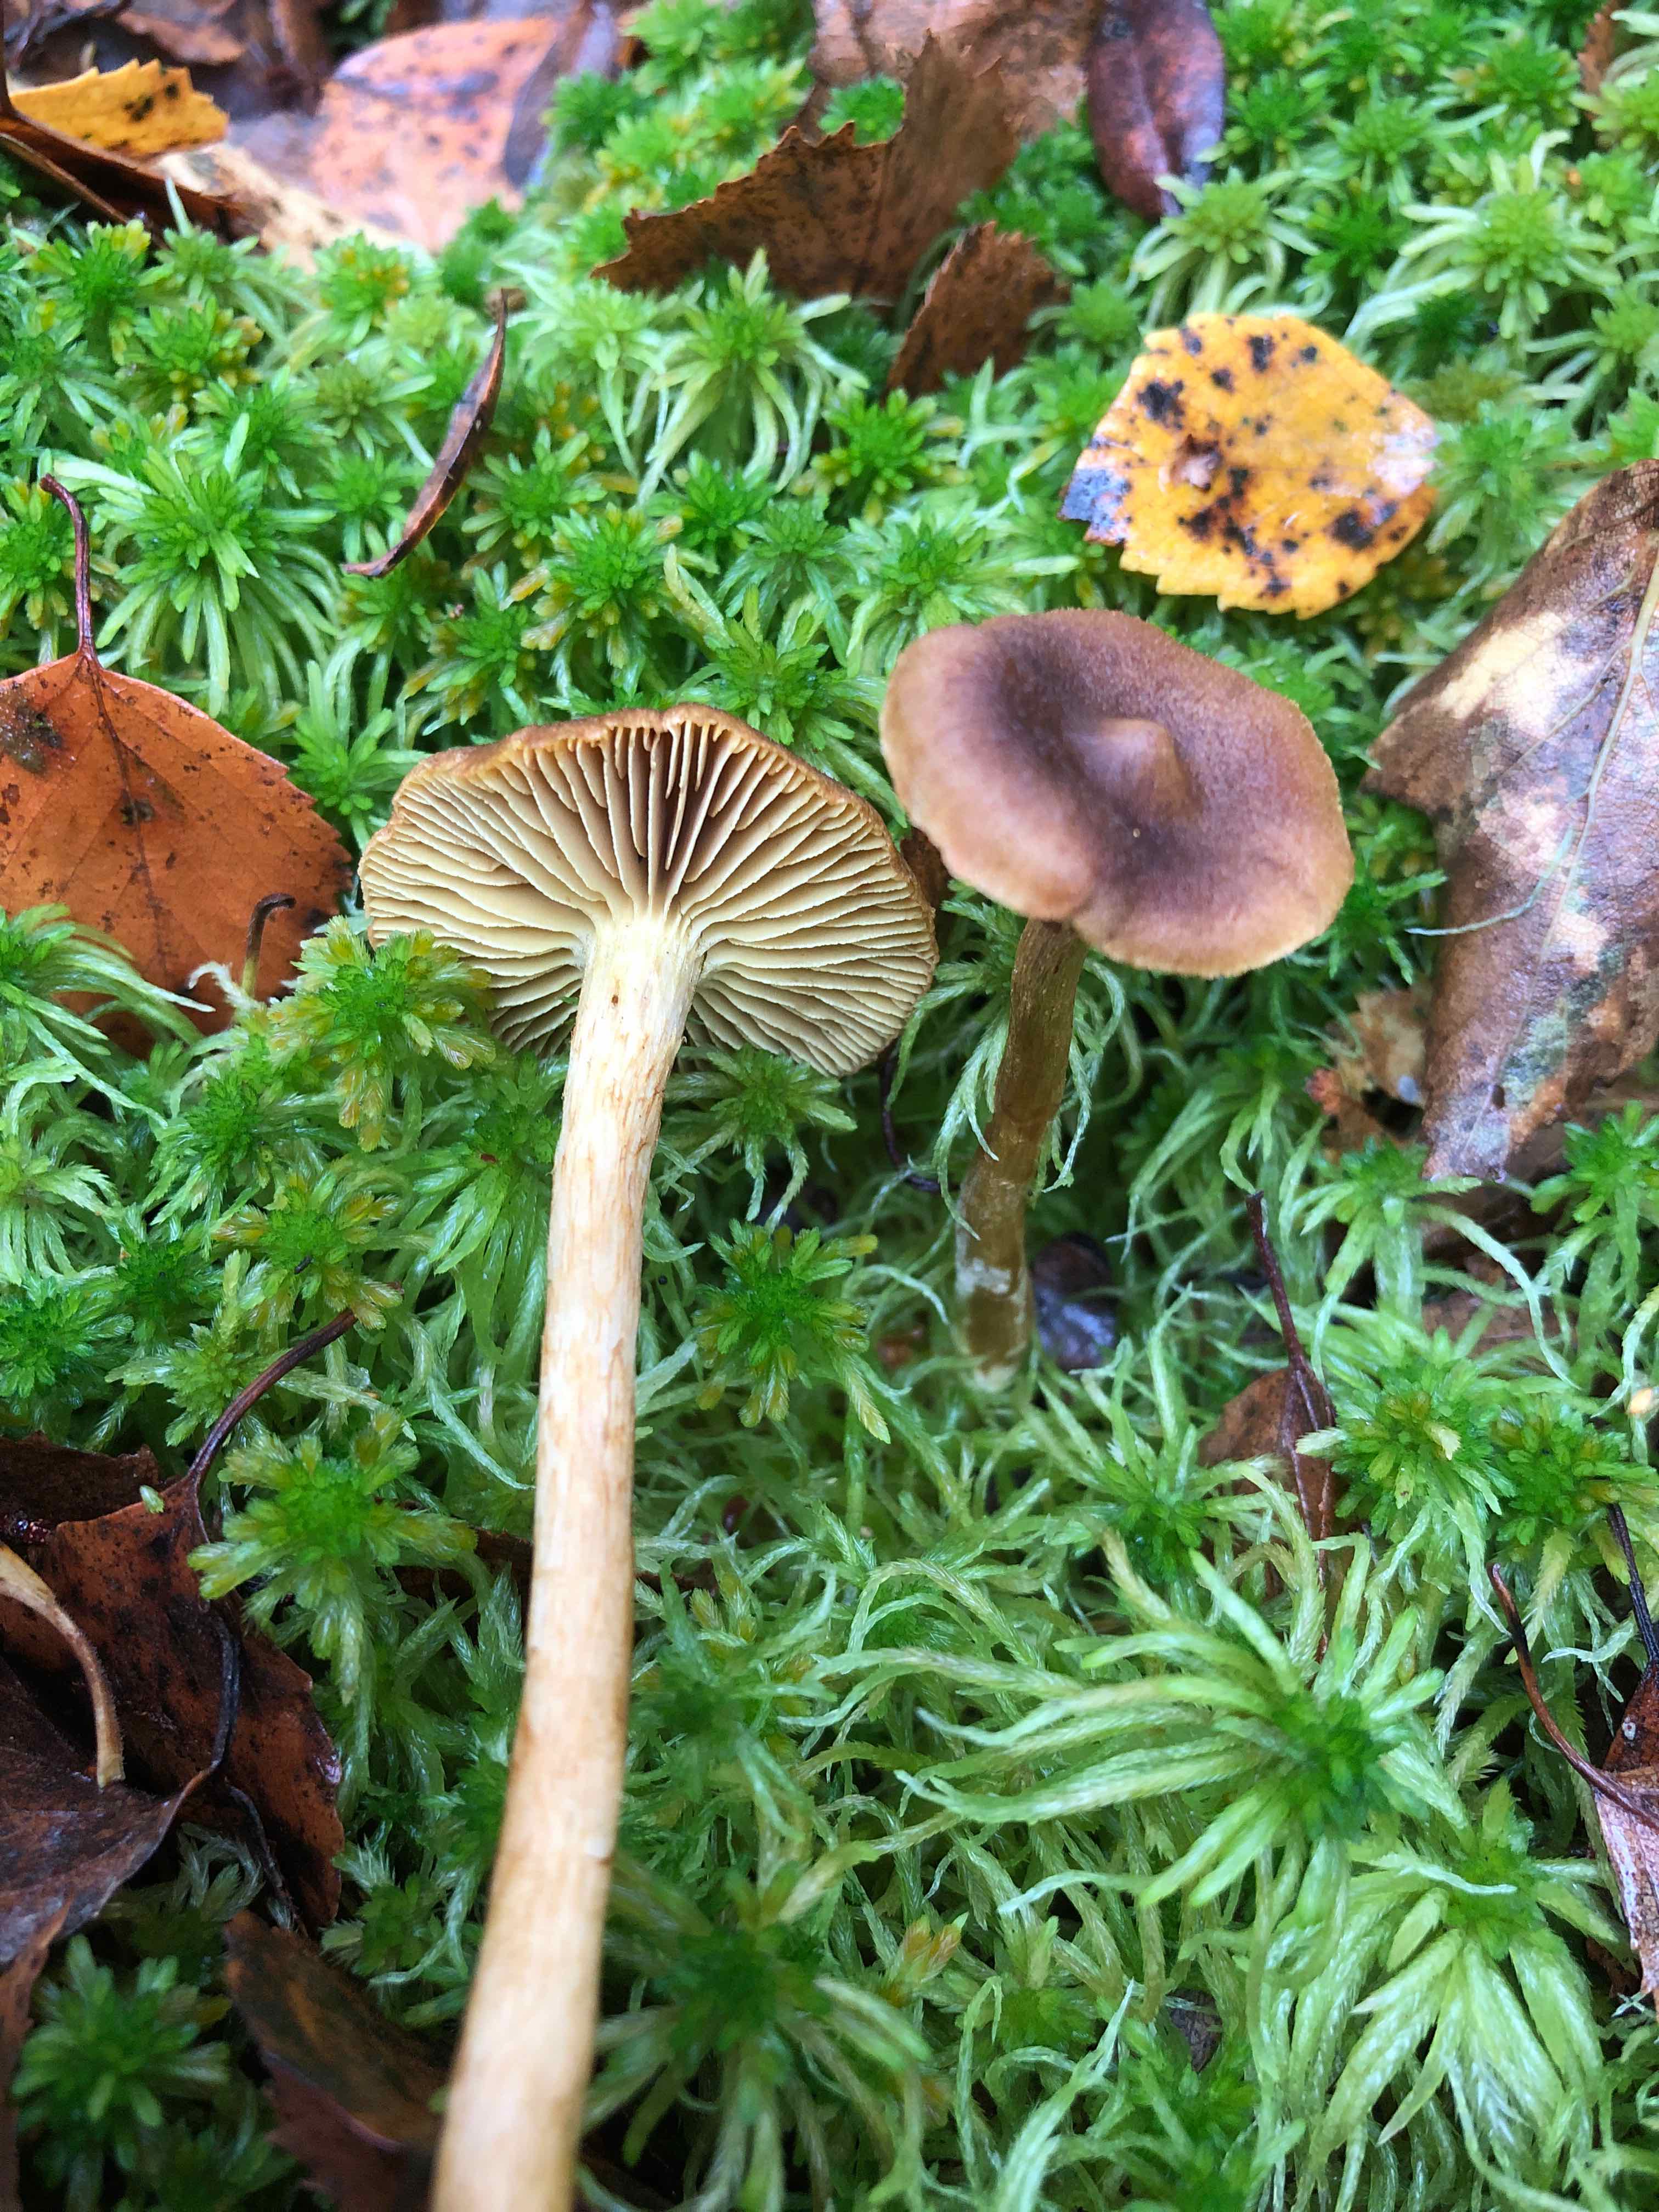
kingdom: Fungi
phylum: Basidiomycota
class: Agaricomycetes
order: Agaricales
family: Cortinariaceae
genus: Cortinarius
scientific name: Cortinarius
